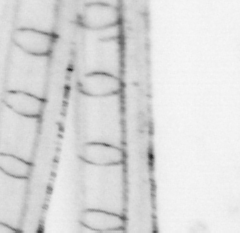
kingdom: Animalia
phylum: Chordata
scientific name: Chordata
